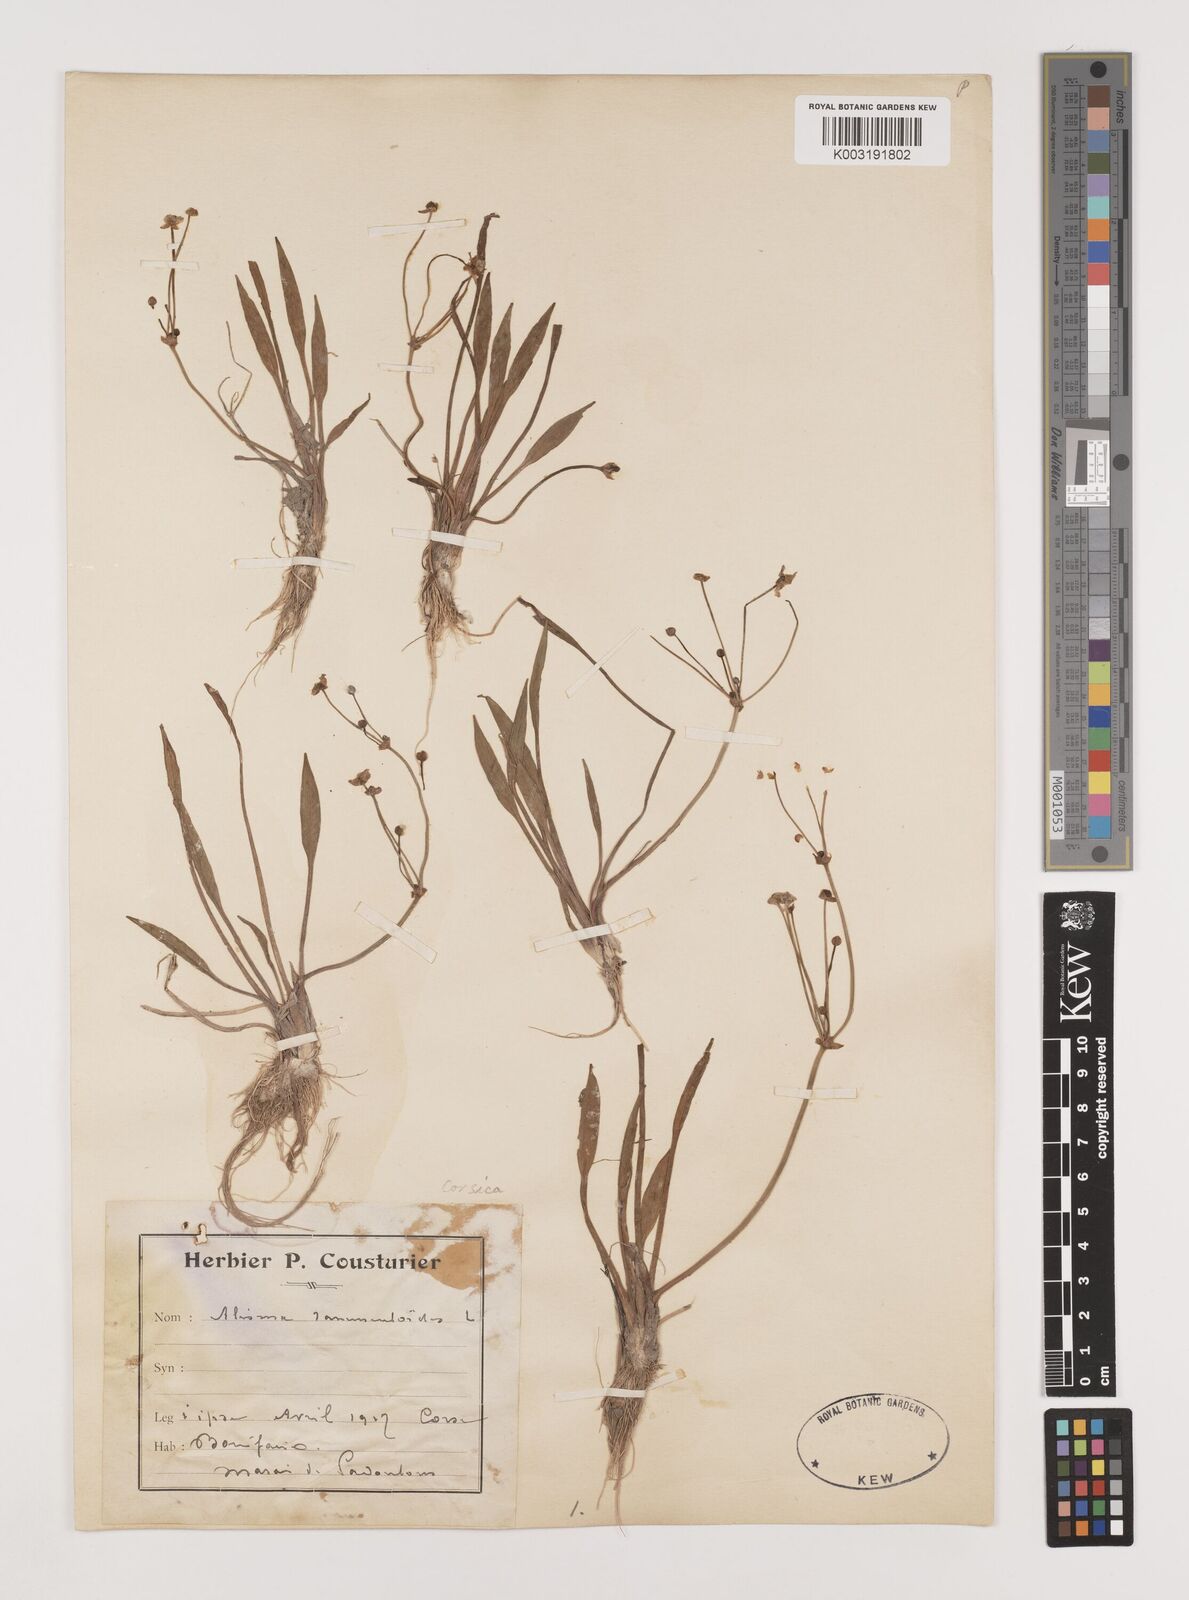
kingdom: Plantae
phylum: Tracheophyta
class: Liliopsida
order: Alismatales
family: Alismataceae
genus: Baldellia
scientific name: Baldellia ranunculoides
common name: Lesser water-plantain
